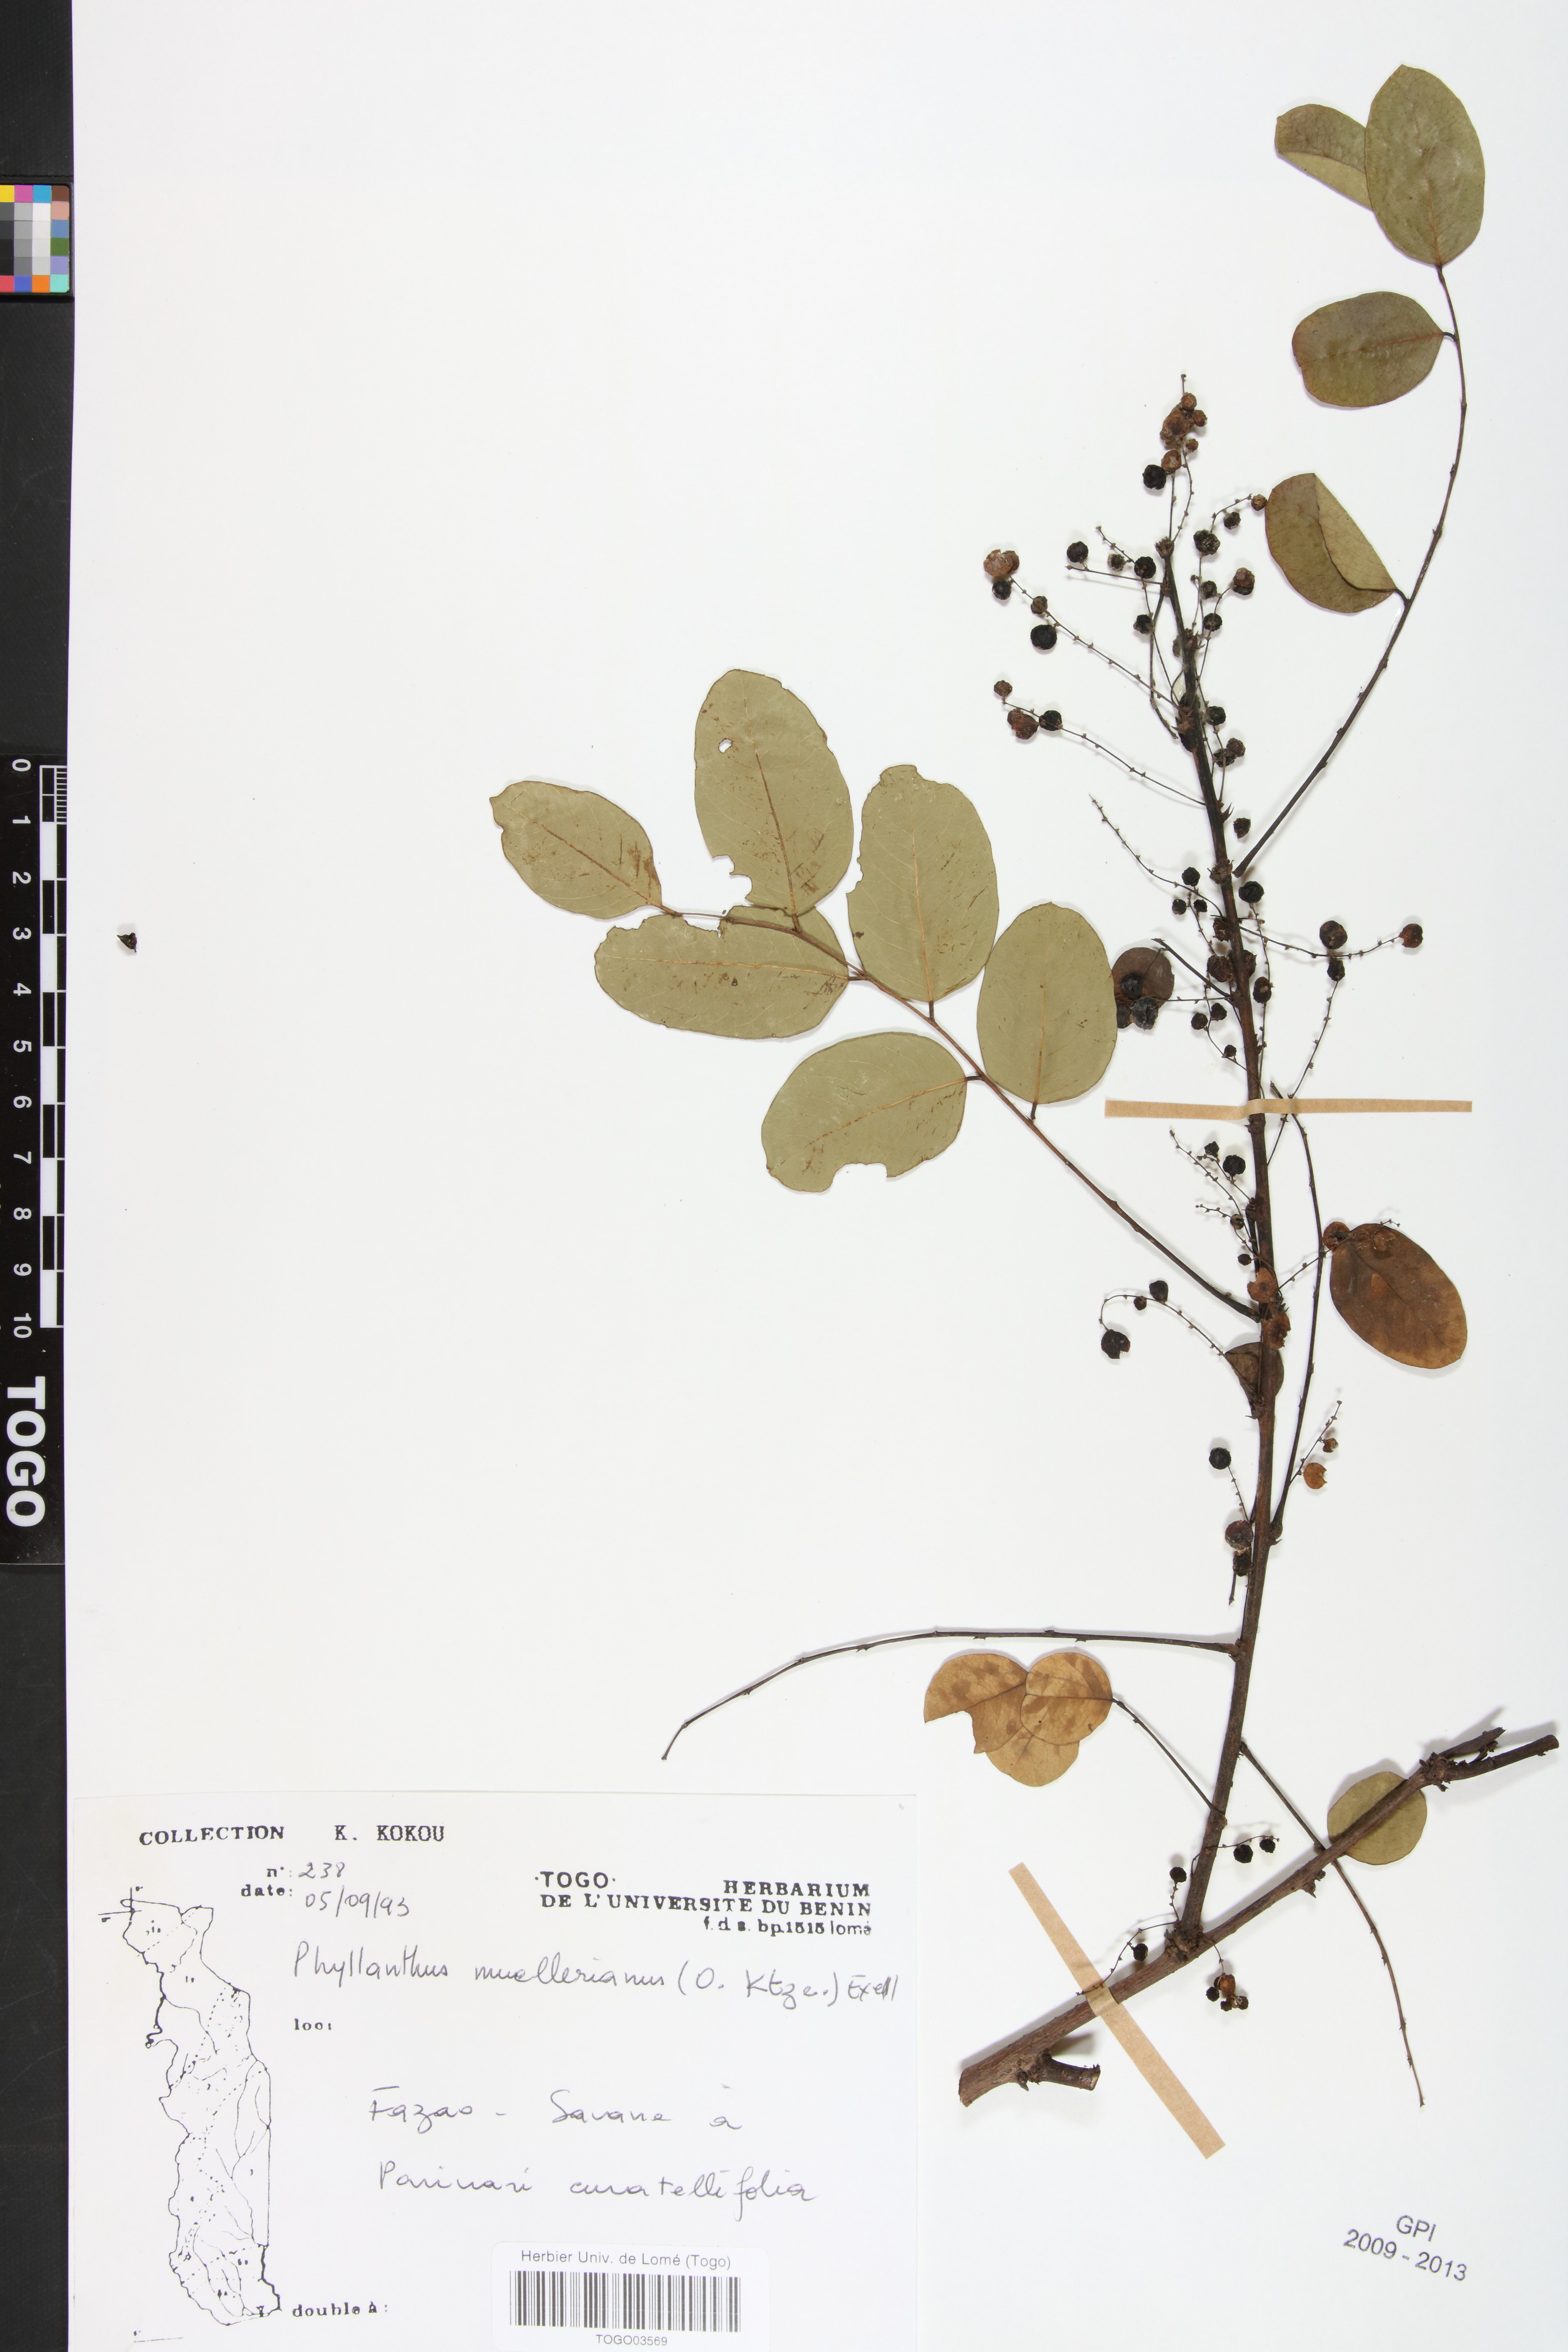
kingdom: Plantae
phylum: Tracheophyta
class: Magnoliopsida
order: Malpighiales
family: Phyllanthaceae
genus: Phyllanthus
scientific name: Phyllanthus muellerianus
